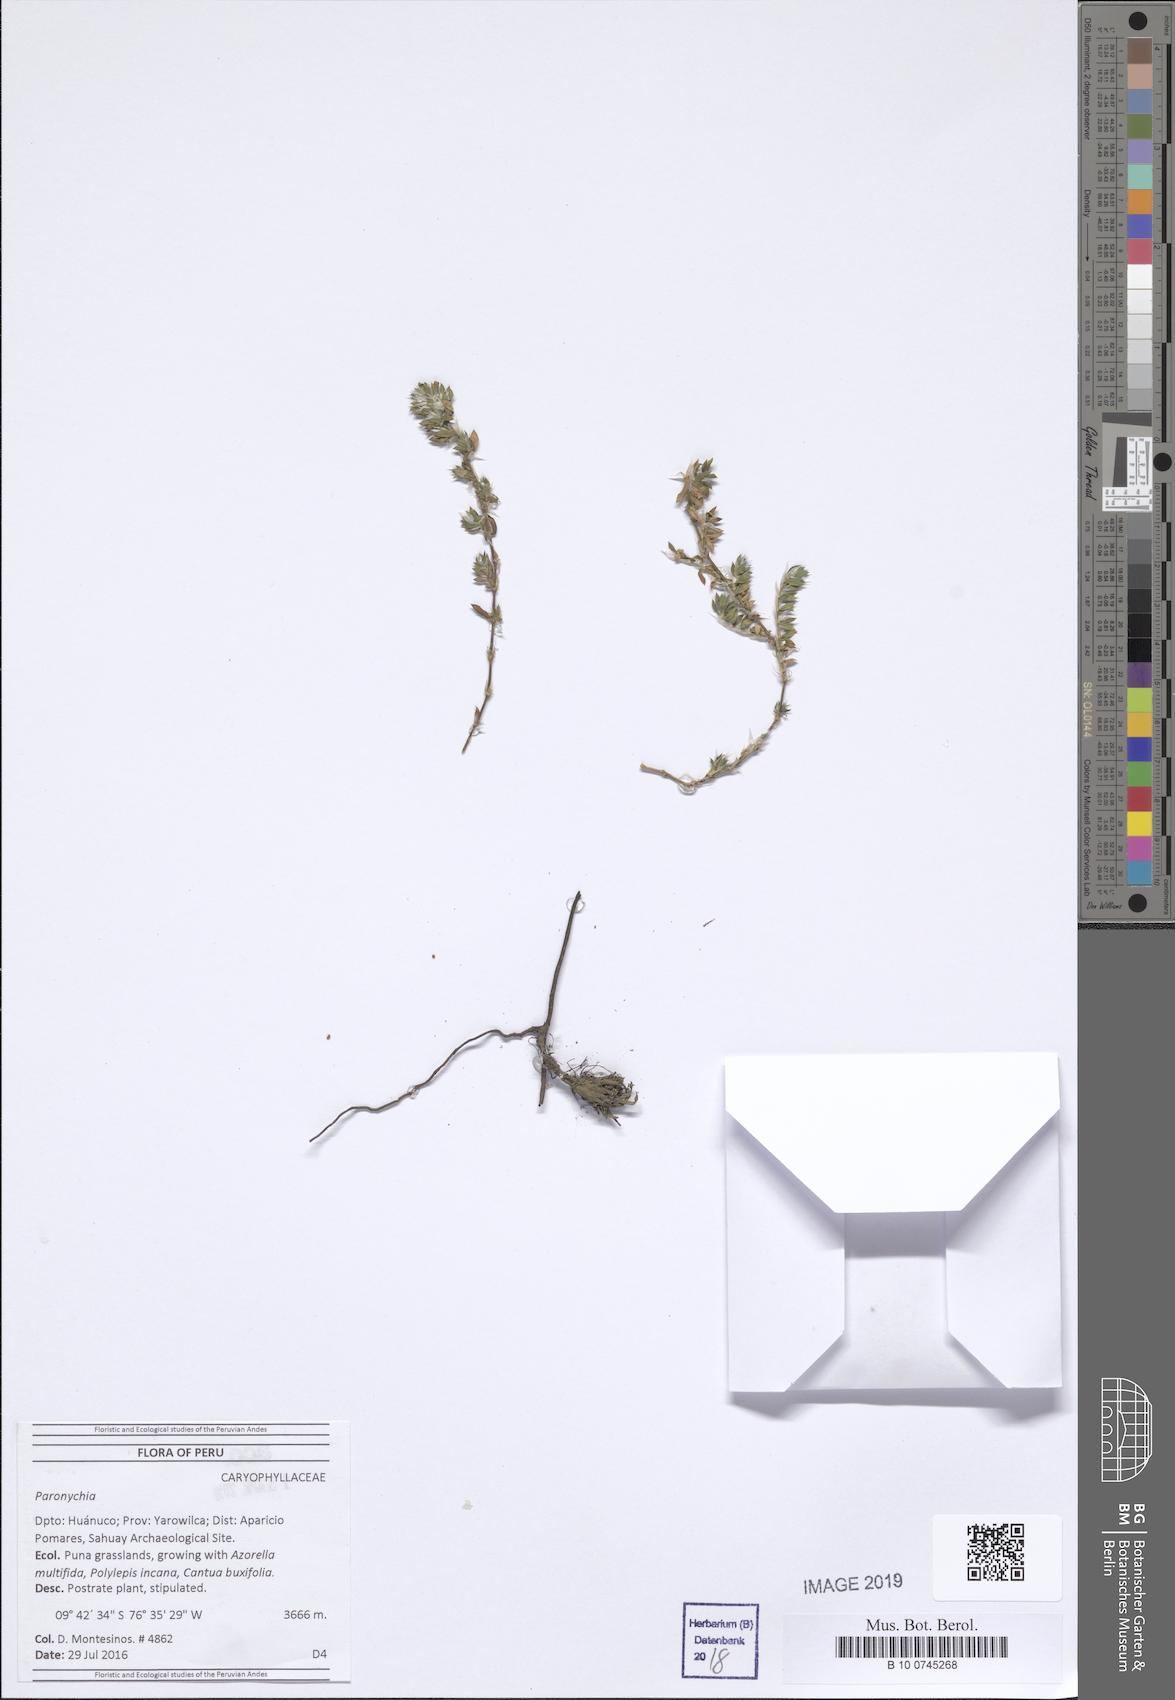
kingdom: Plantae
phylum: Tracheophyta
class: Magnoliopsida
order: Caryophyllales
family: Caryophyllaceae
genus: Paronychia
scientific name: Paronychia macbridei
